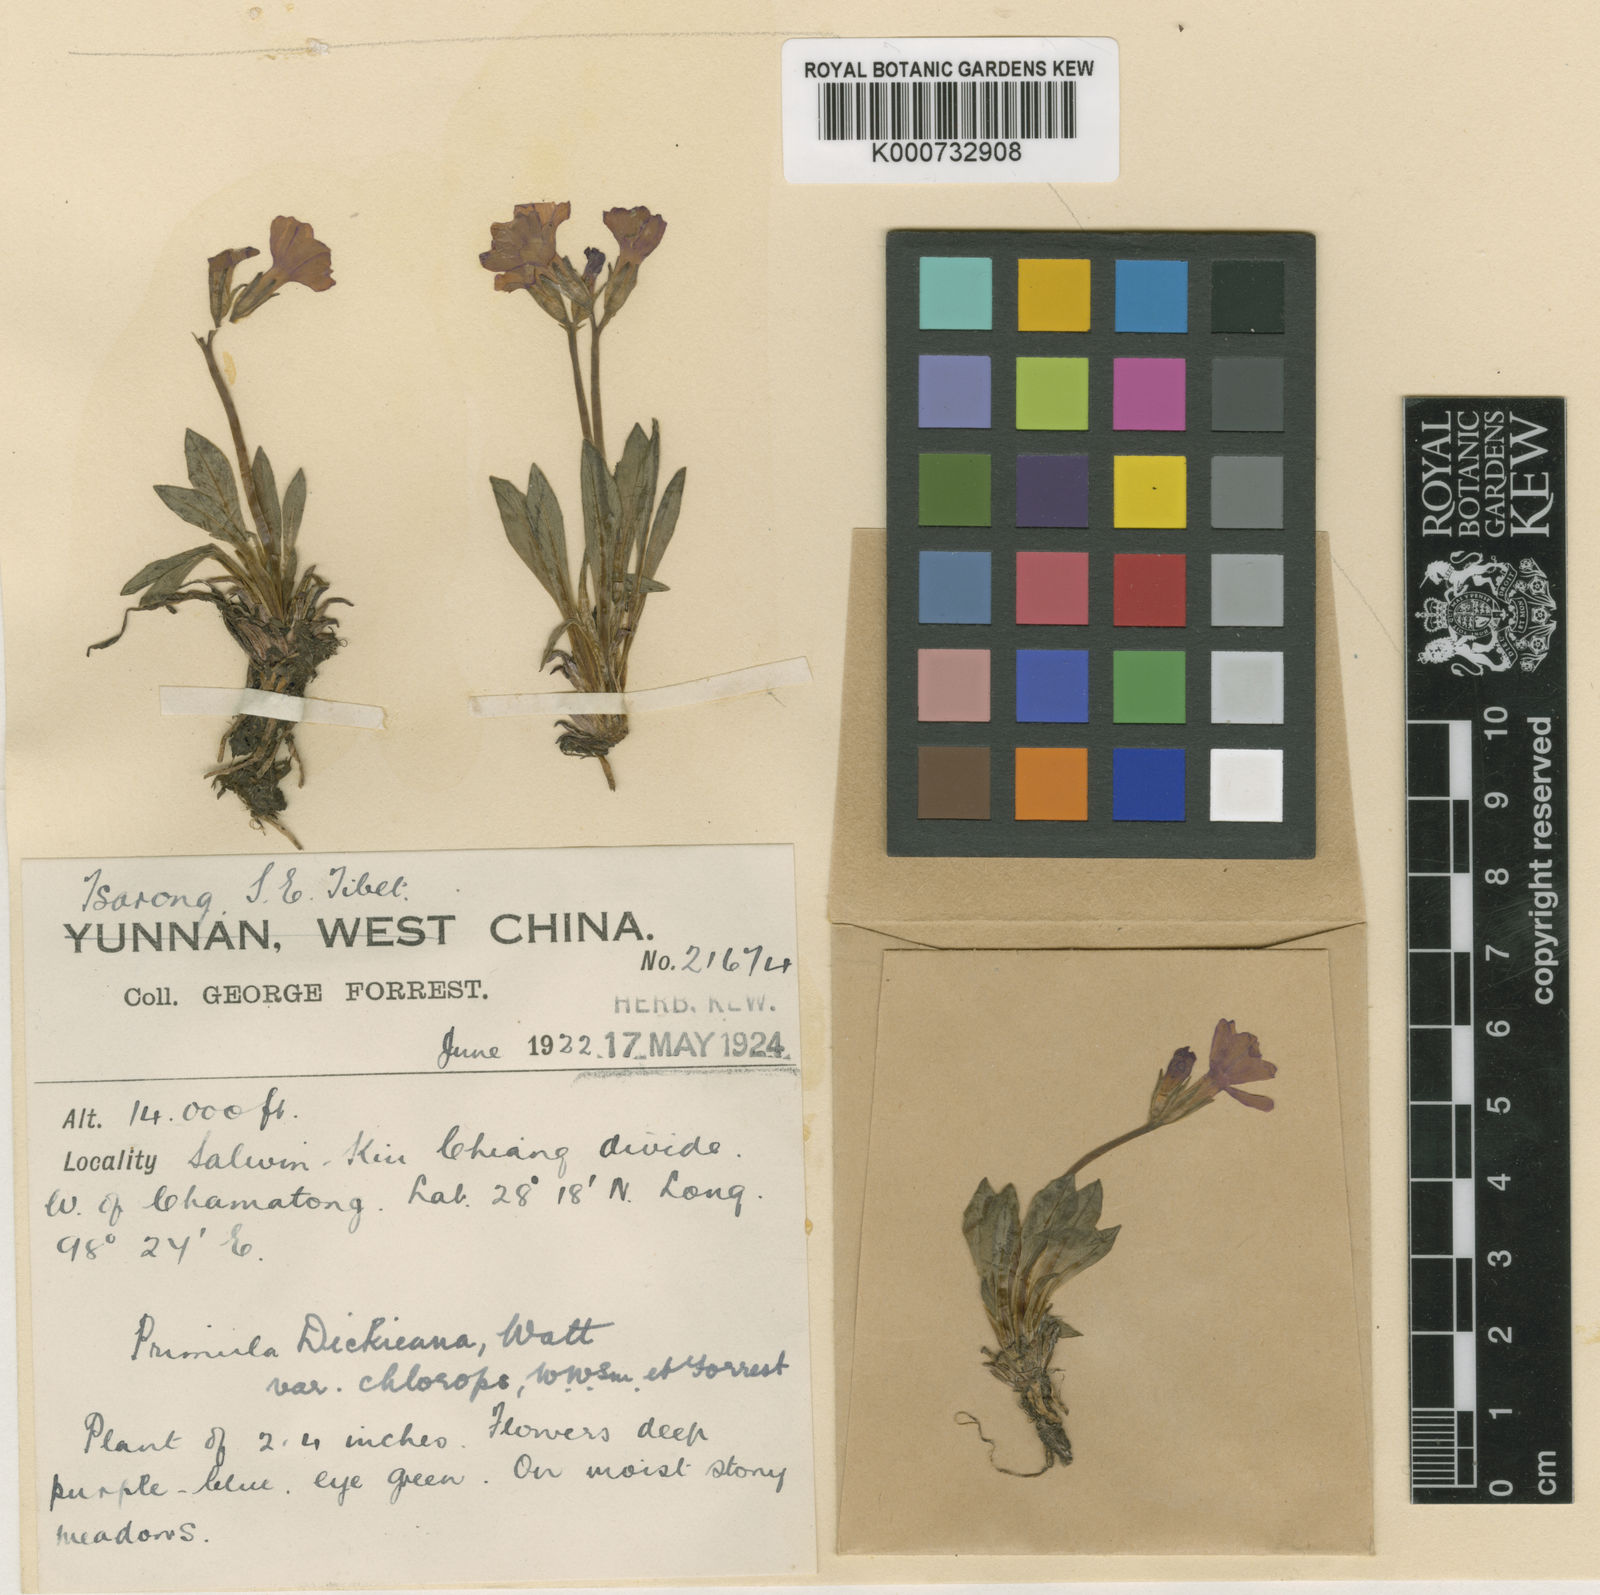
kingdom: Plantae
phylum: Tracheophyta
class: Magnoliopsida
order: Ericales
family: Primulaceae
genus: Primula
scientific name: Primula dickieana
